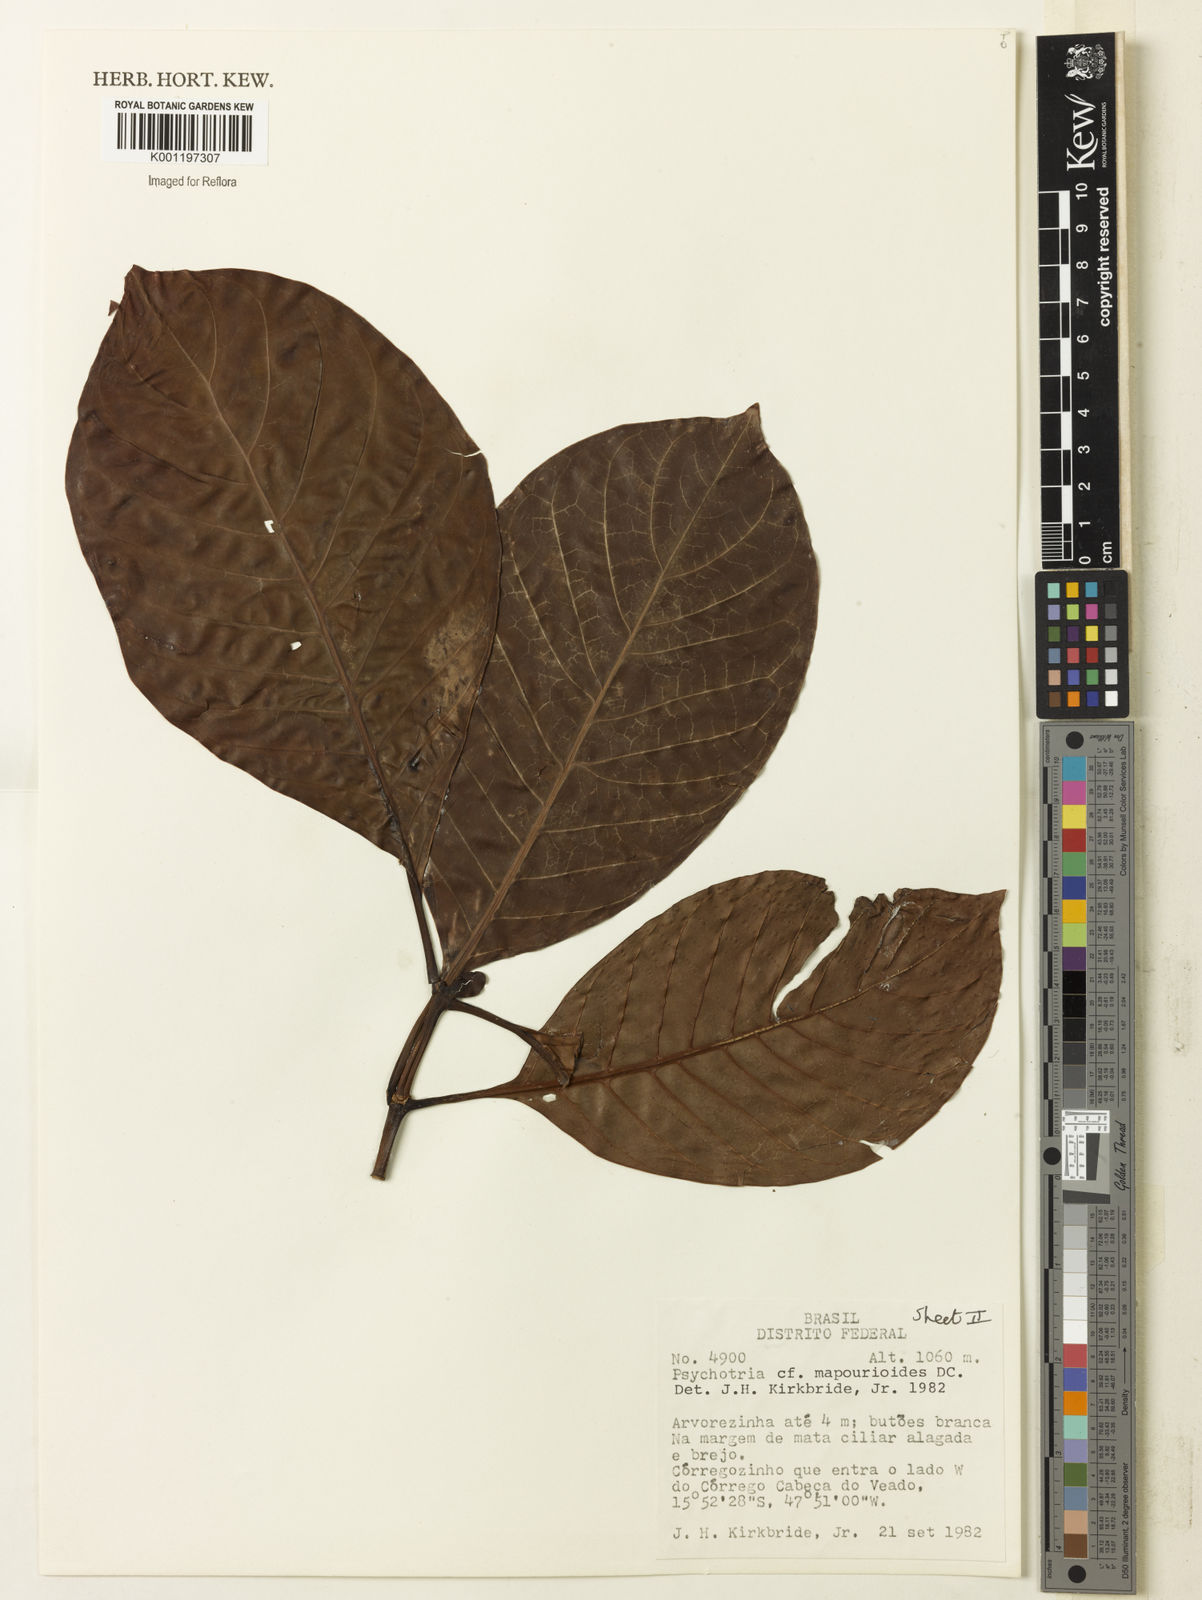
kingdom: Plantae
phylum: Tracheophyta
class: Magnoliopsida
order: Gentianales
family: Rubiaceae
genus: Psychotria
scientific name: Psychotria pedunculosa
